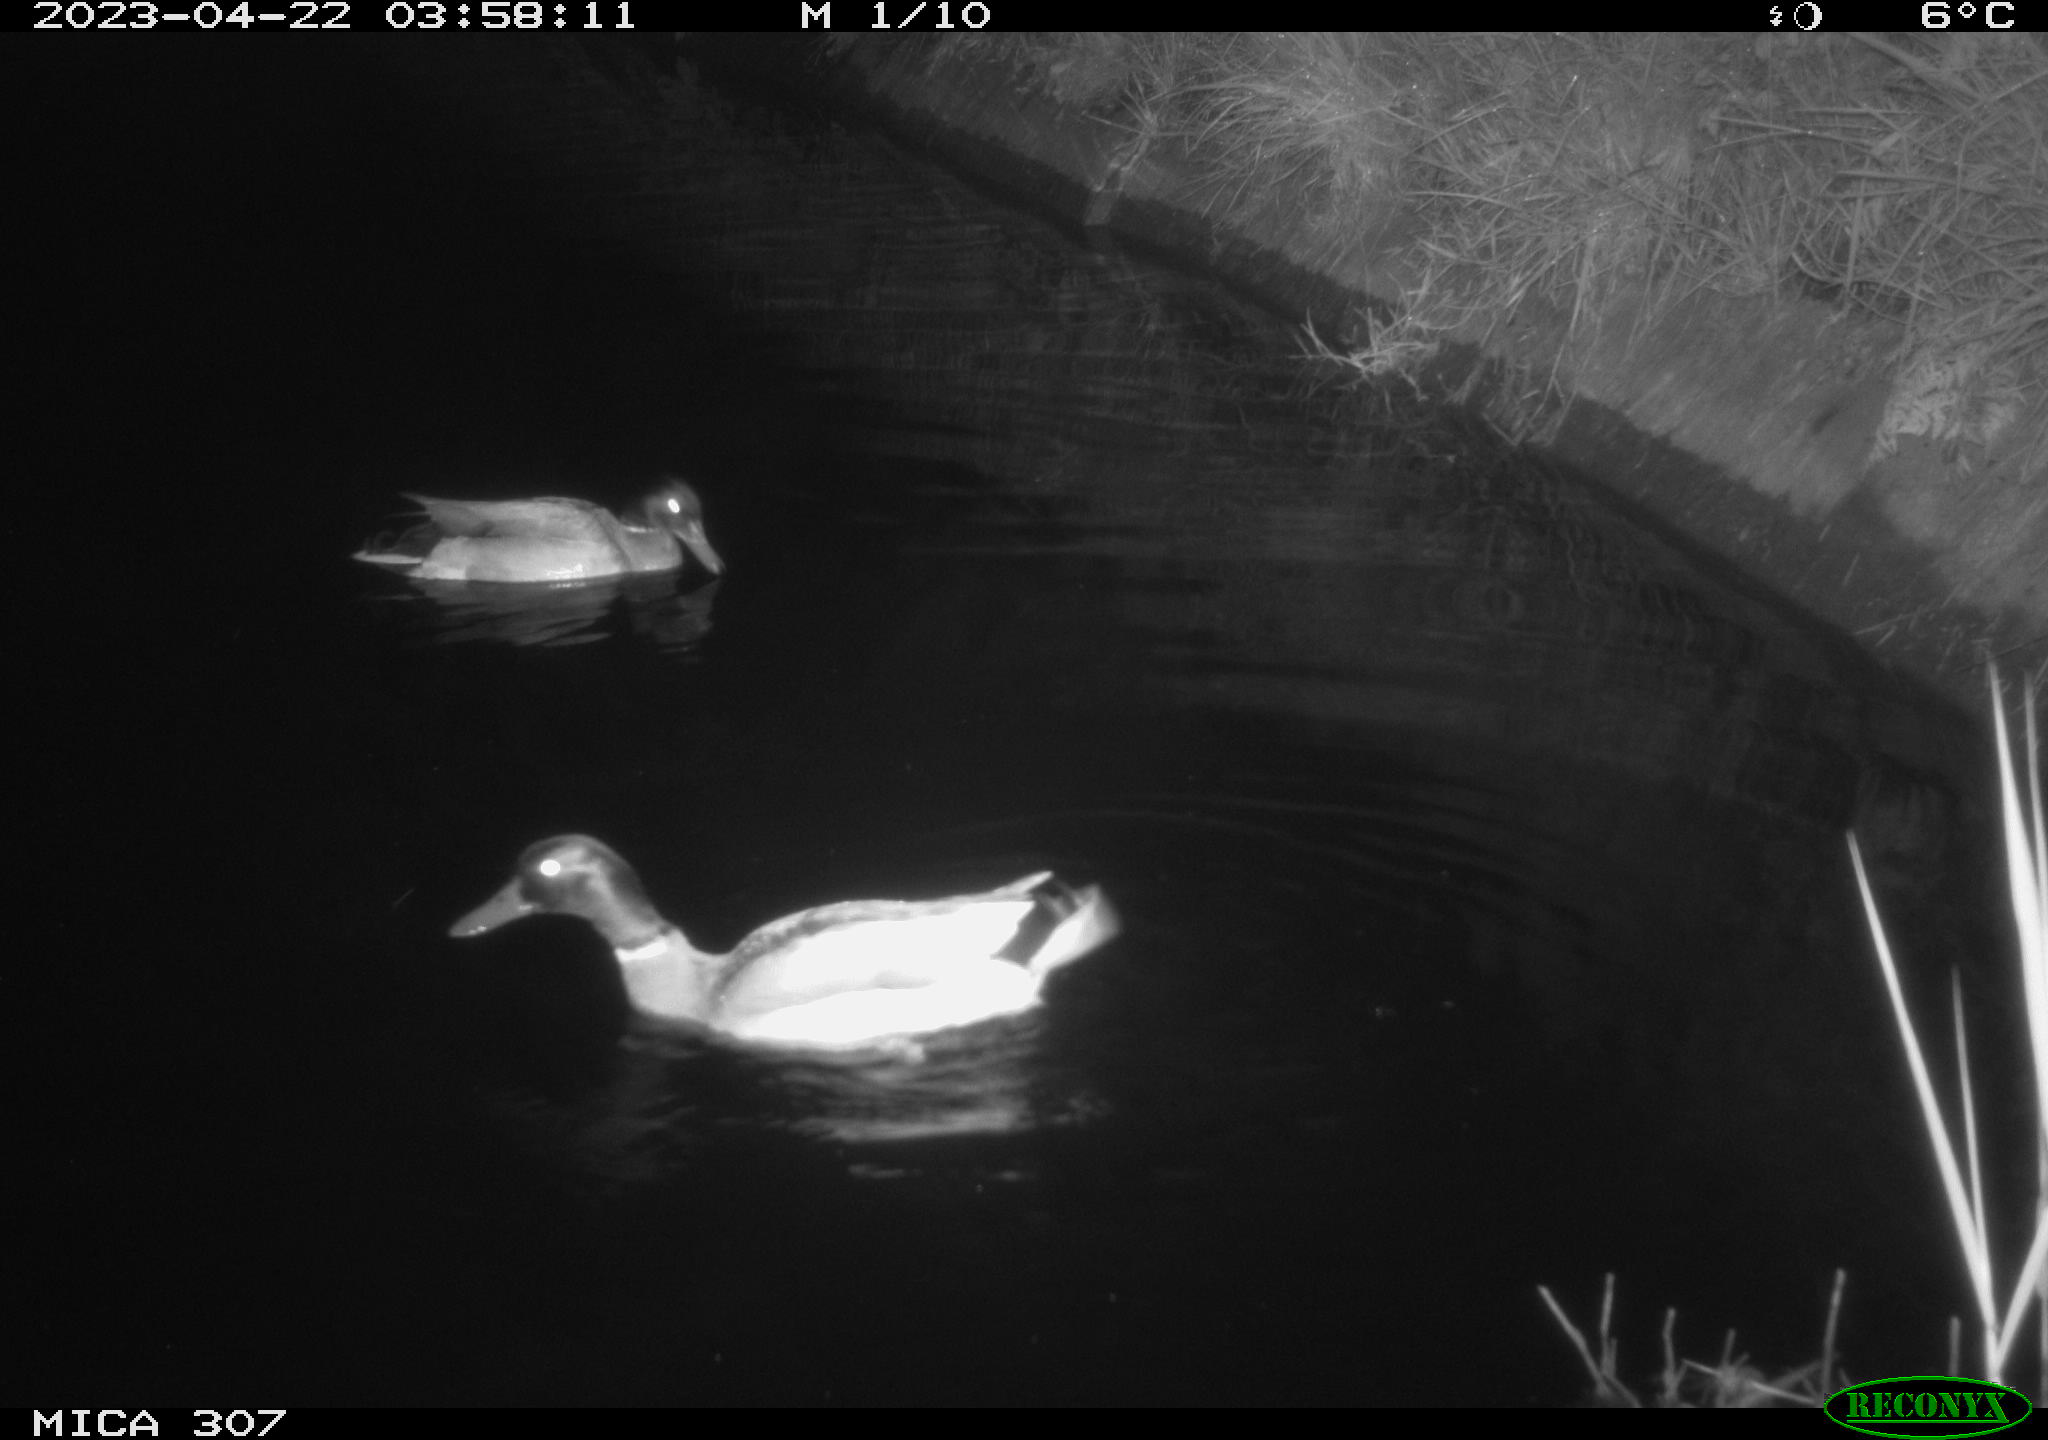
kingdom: Animalia
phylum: Chordata
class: Aves
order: Anseriformes
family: Anatidae
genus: Anas
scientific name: Anas
